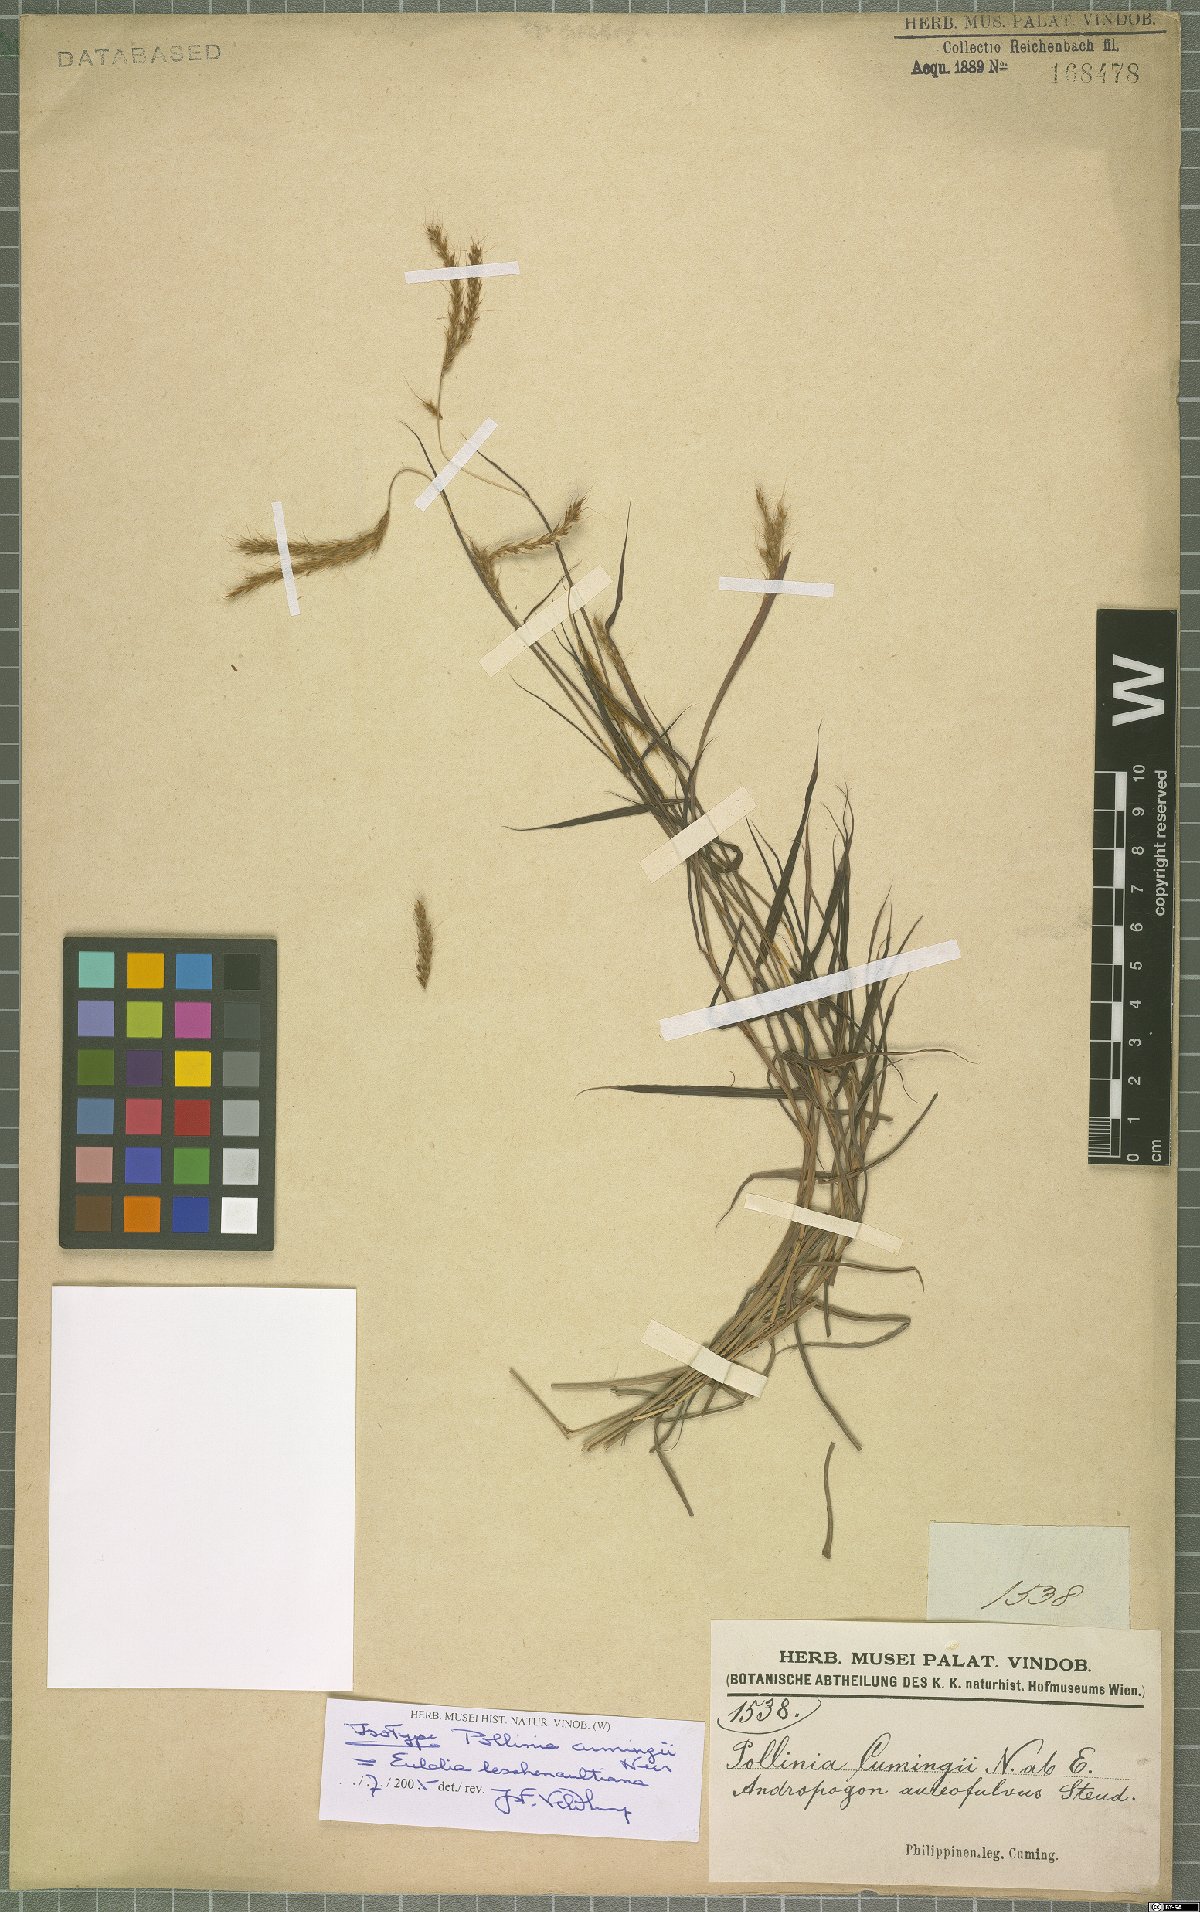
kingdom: Plantae
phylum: Tracheophyta
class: Liliopsida
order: Poales
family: Poaceae
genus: Eulalia
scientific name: Eulalia leschenaultiana
